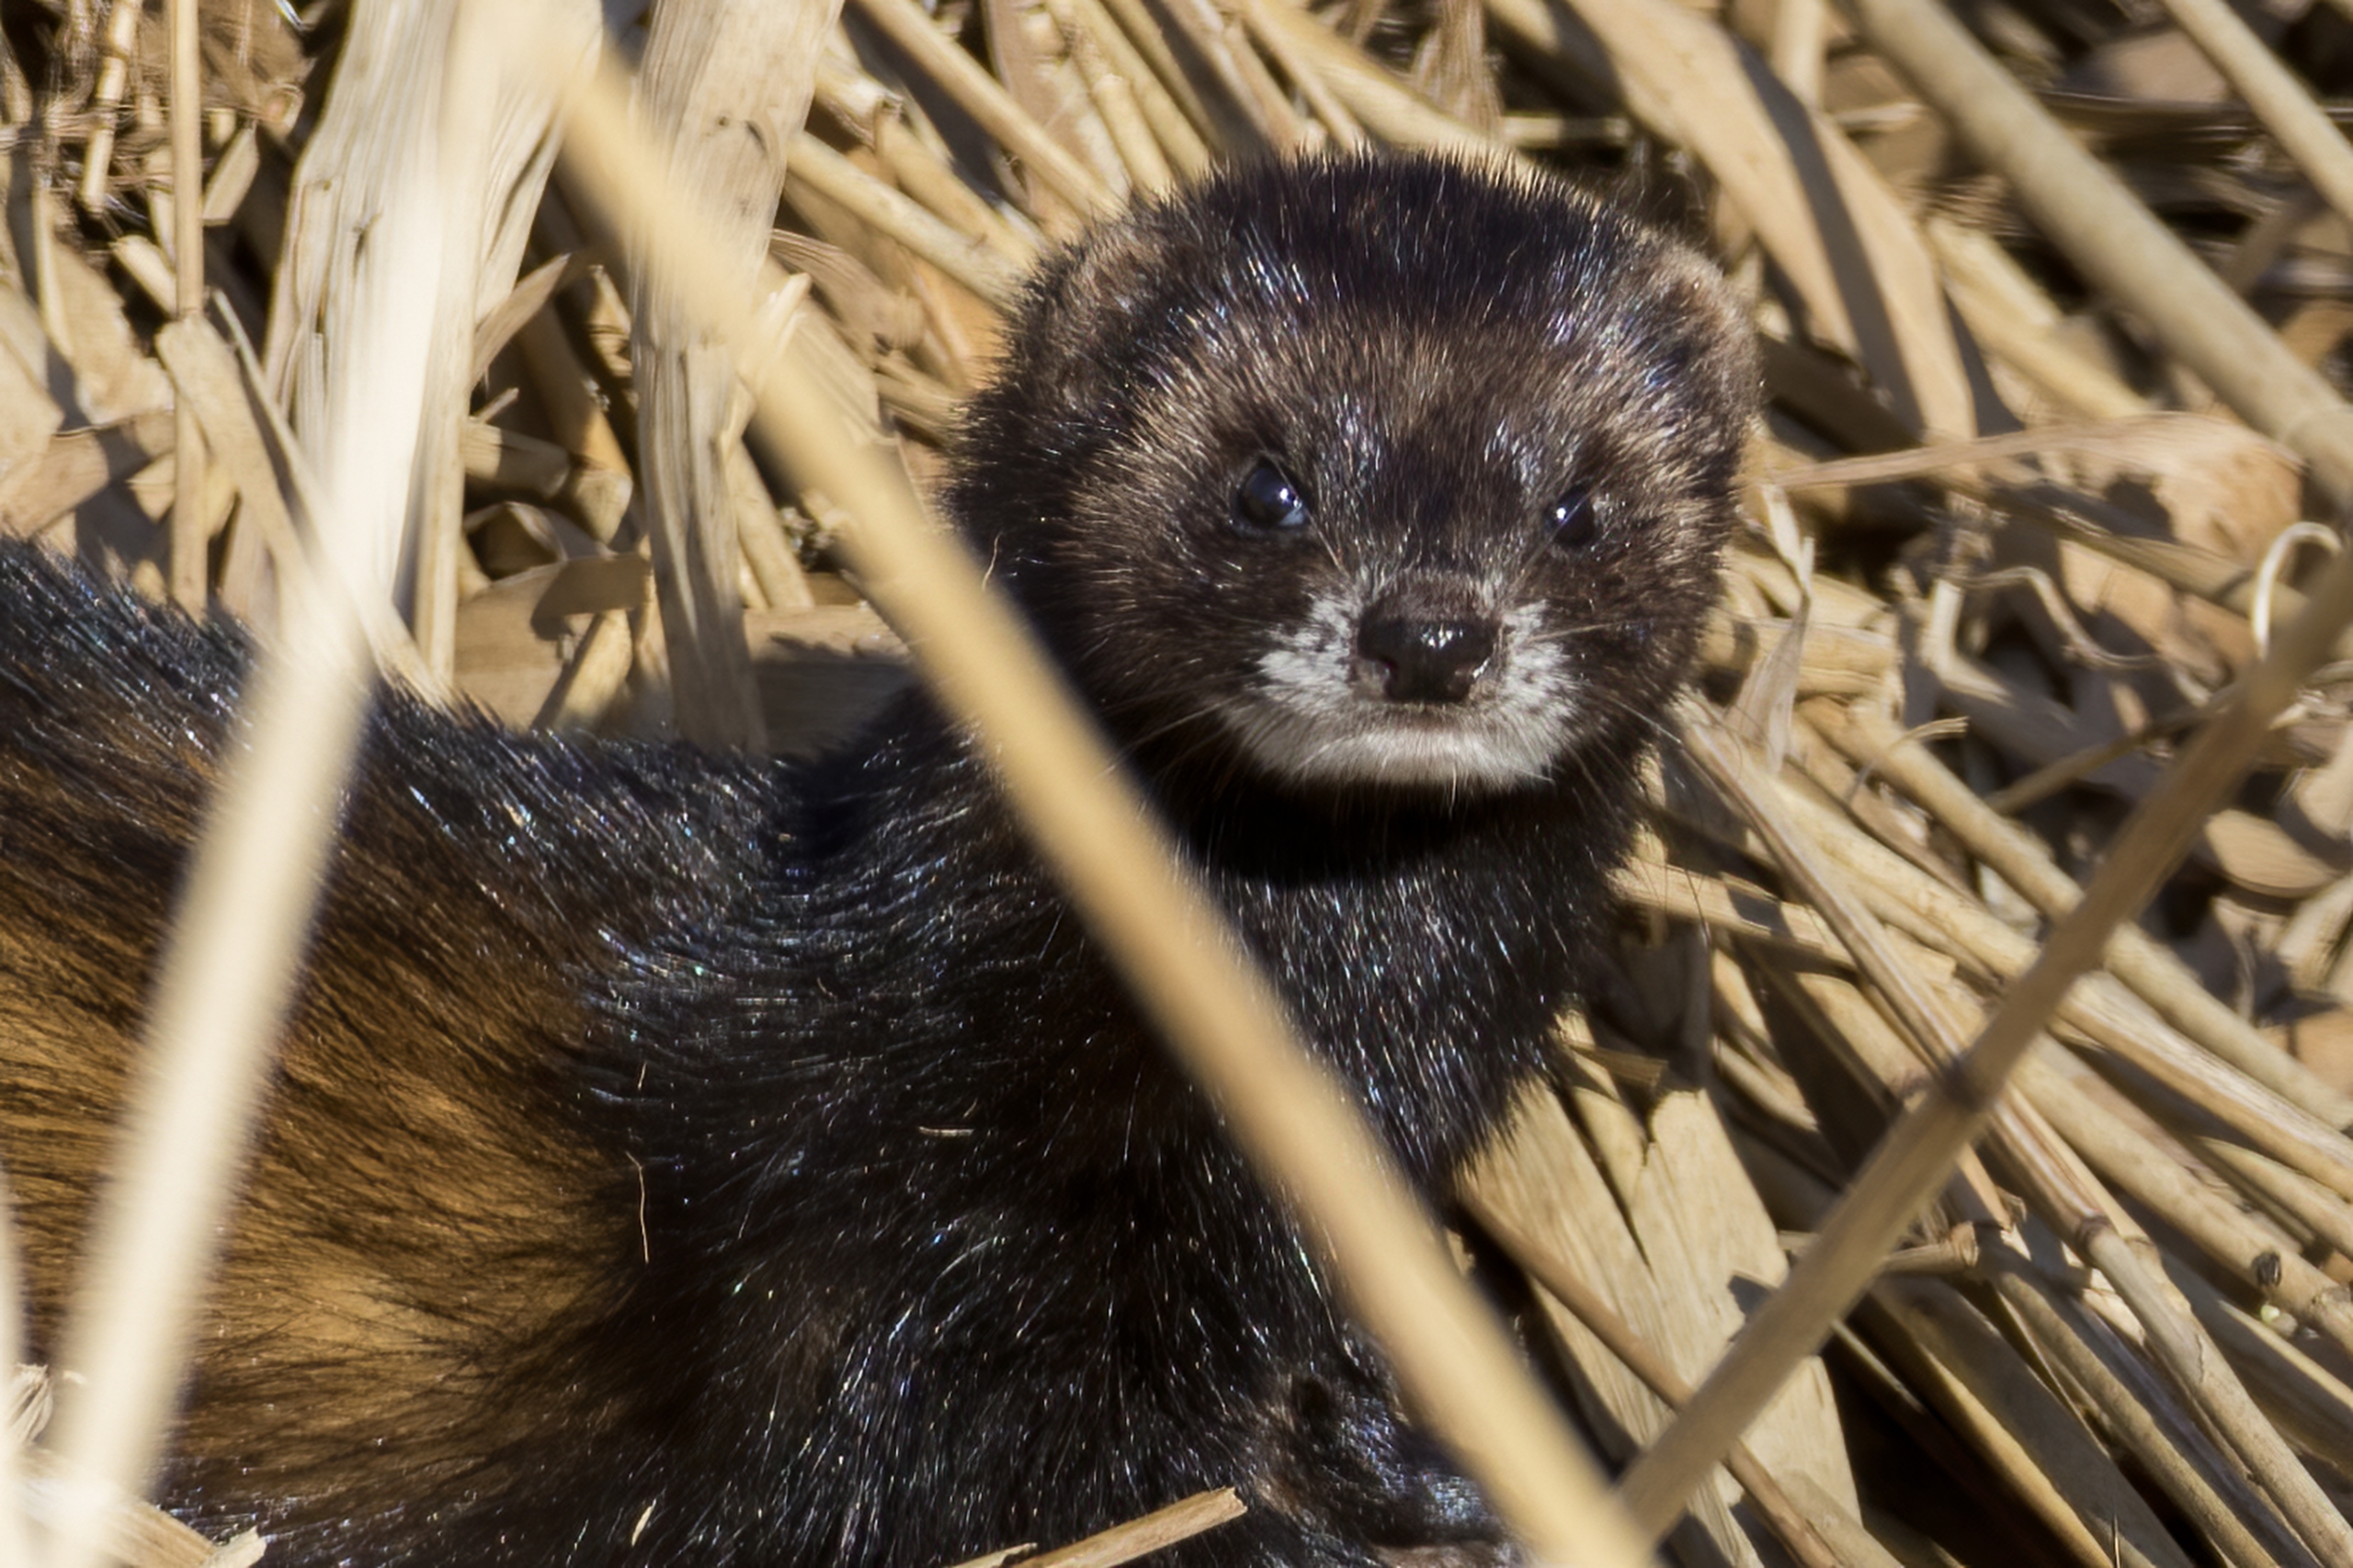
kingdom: Animalia
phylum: Chordata
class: Mammalia
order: Carnivora
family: Mustelidae
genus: Mustela
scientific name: Mustela putorius
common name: Ilder
